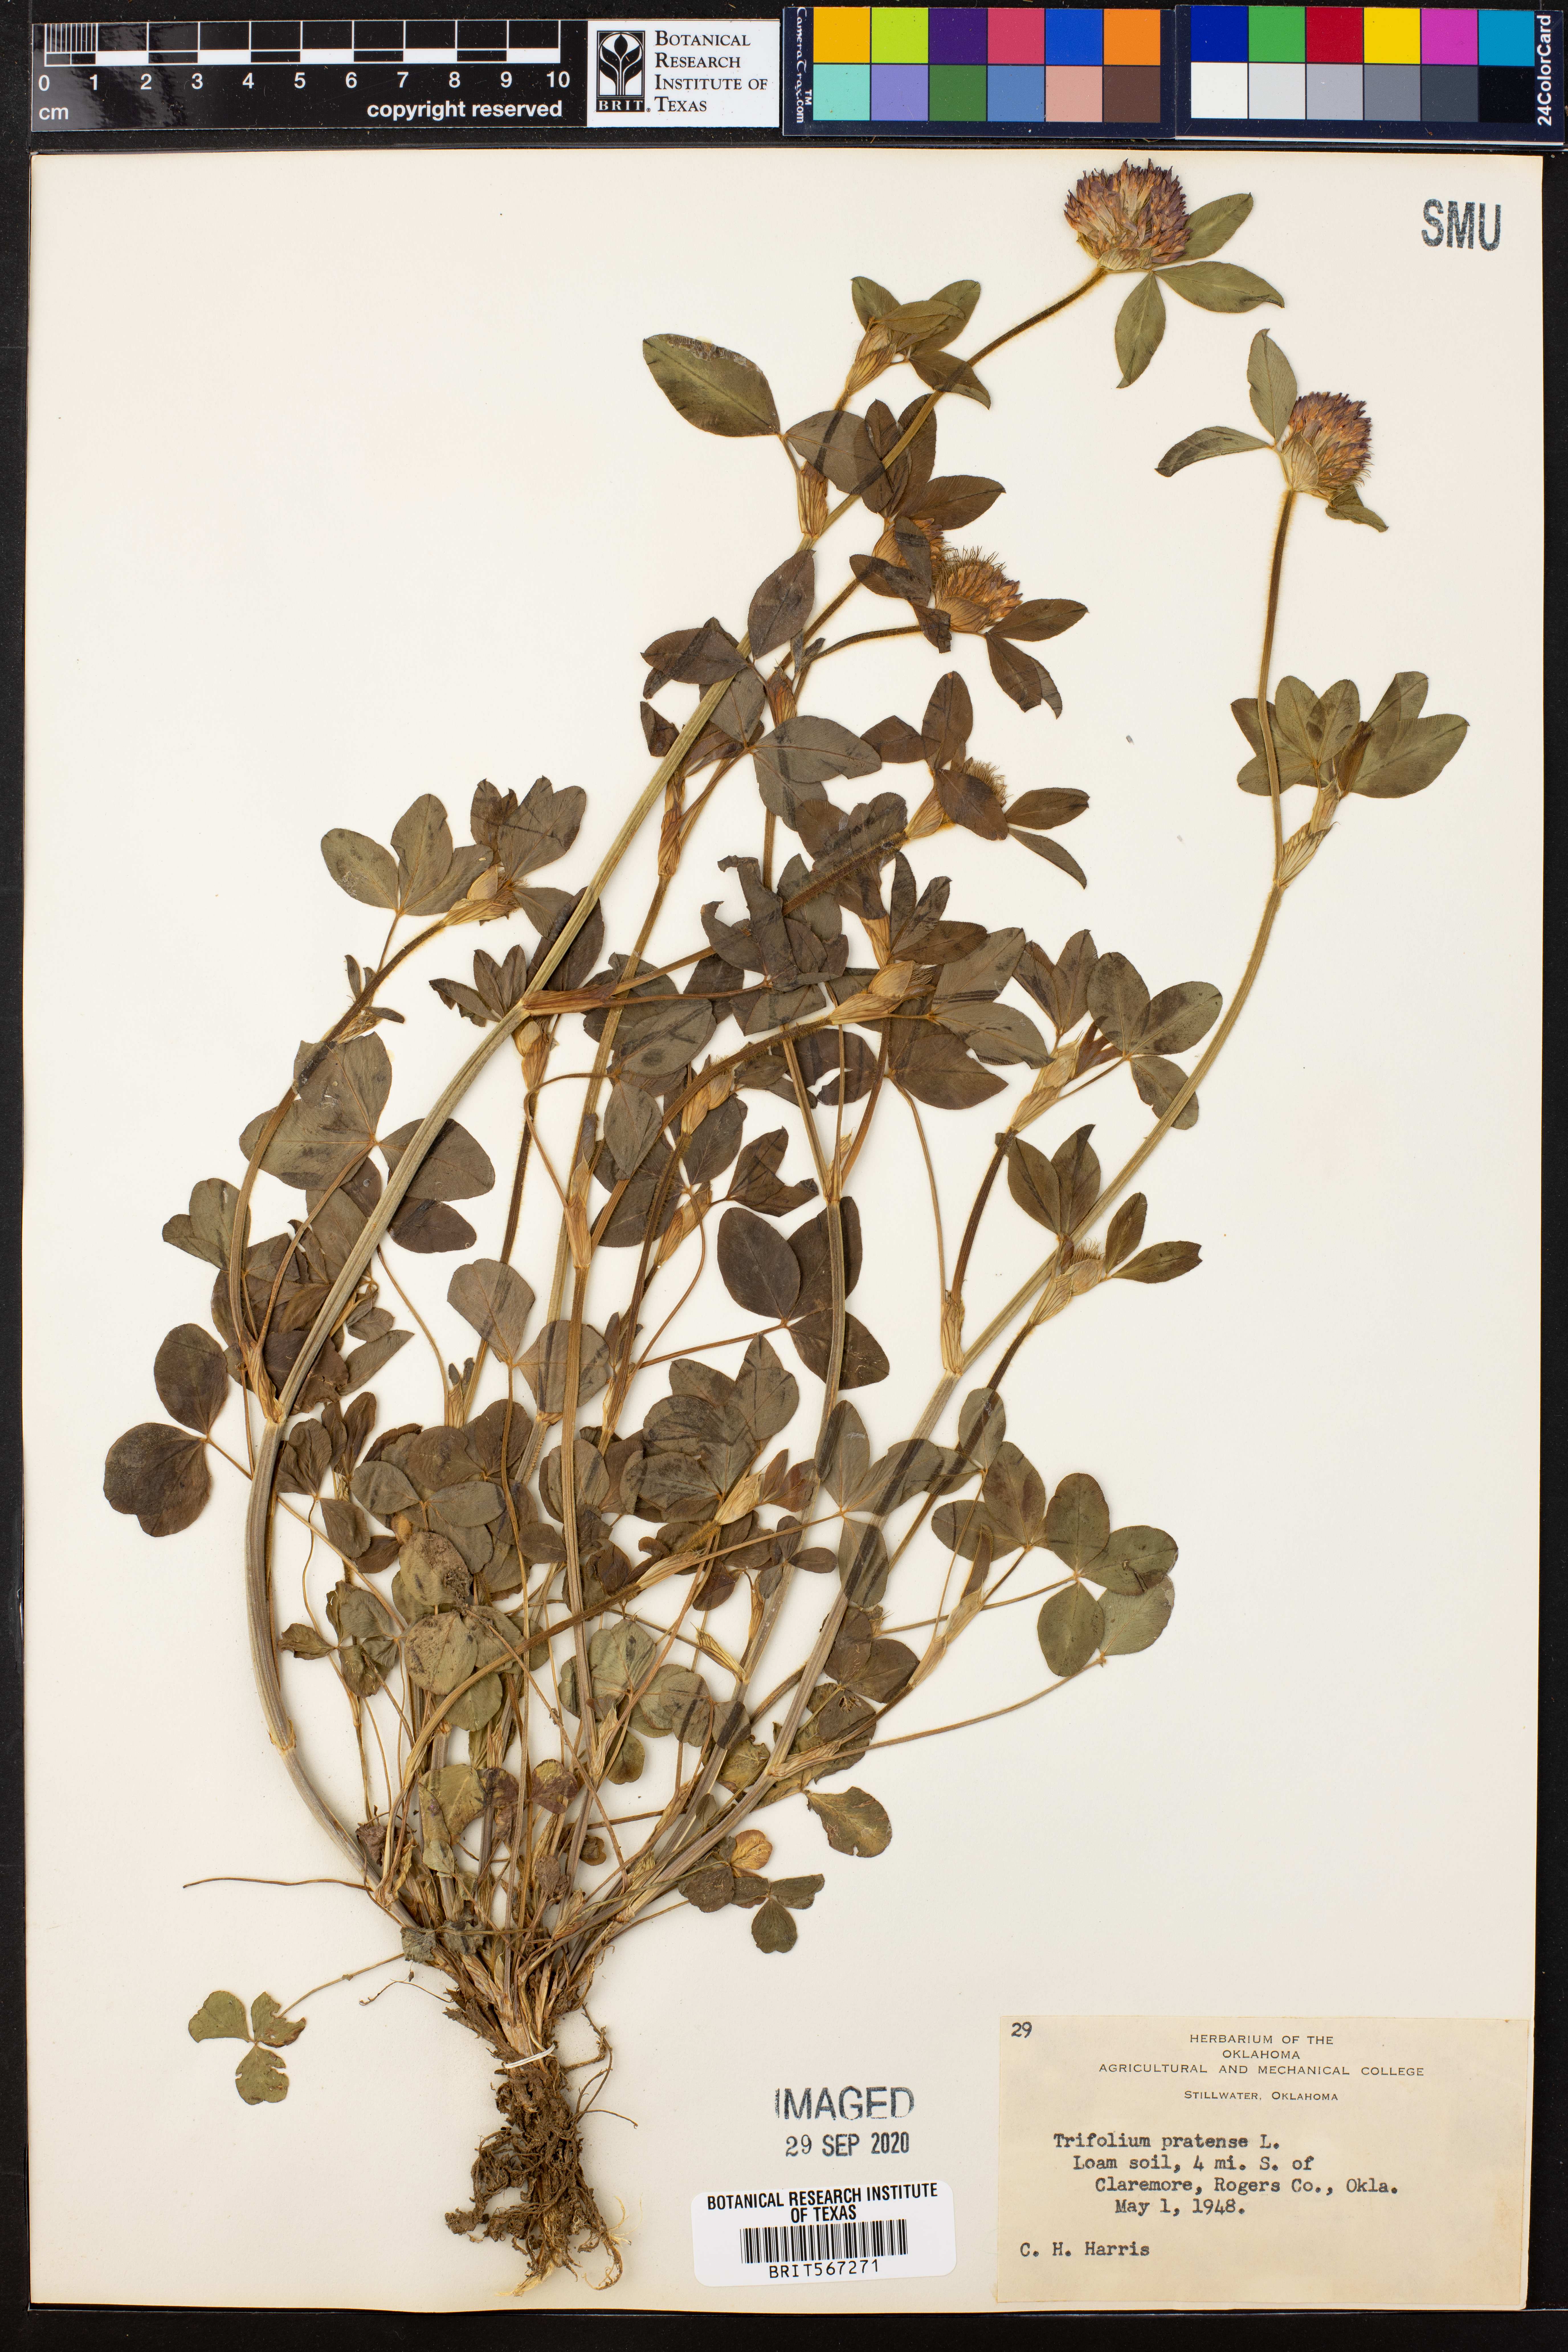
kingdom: Plantae
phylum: Tracheophyta
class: Magnoliopsida
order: Fabales
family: Fabaceae
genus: Trifolium
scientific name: Trifolium pratense
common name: Red clover
